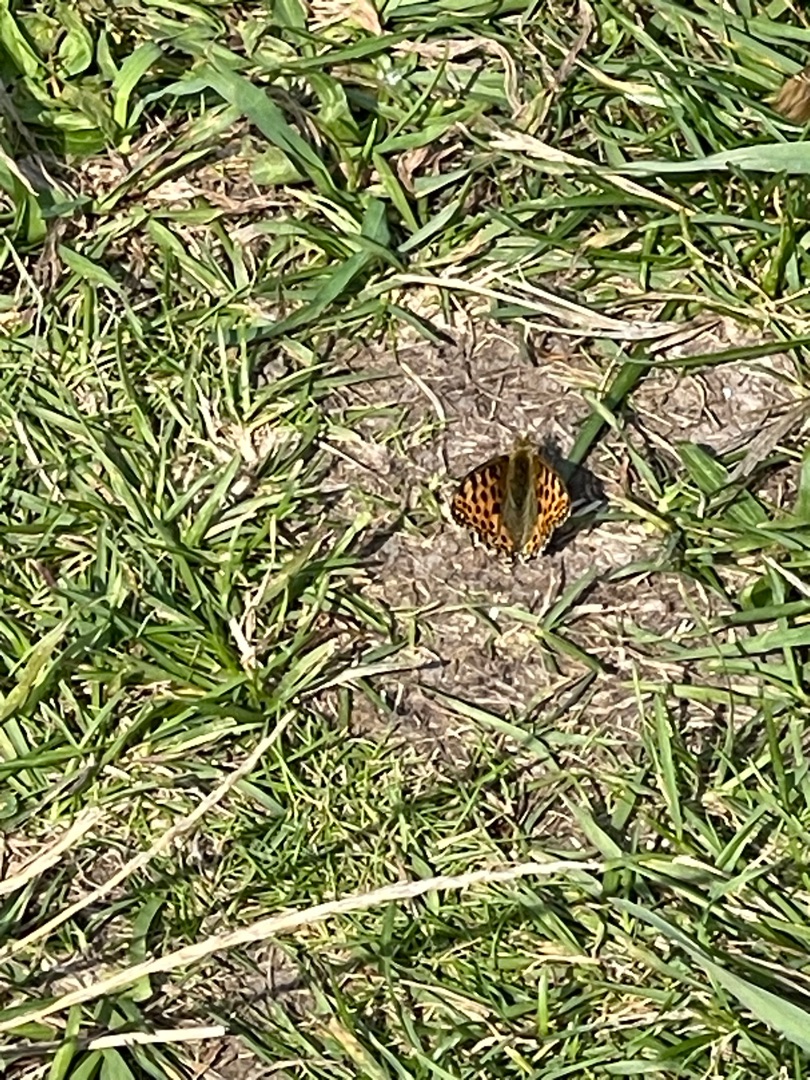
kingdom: Animalia
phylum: Arthropoda
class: Insecta
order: Lepidoptera
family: Nymphalidae
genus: Issoria
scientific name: Issoria lathonia
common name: Storplettet perlemorsommerfugl
